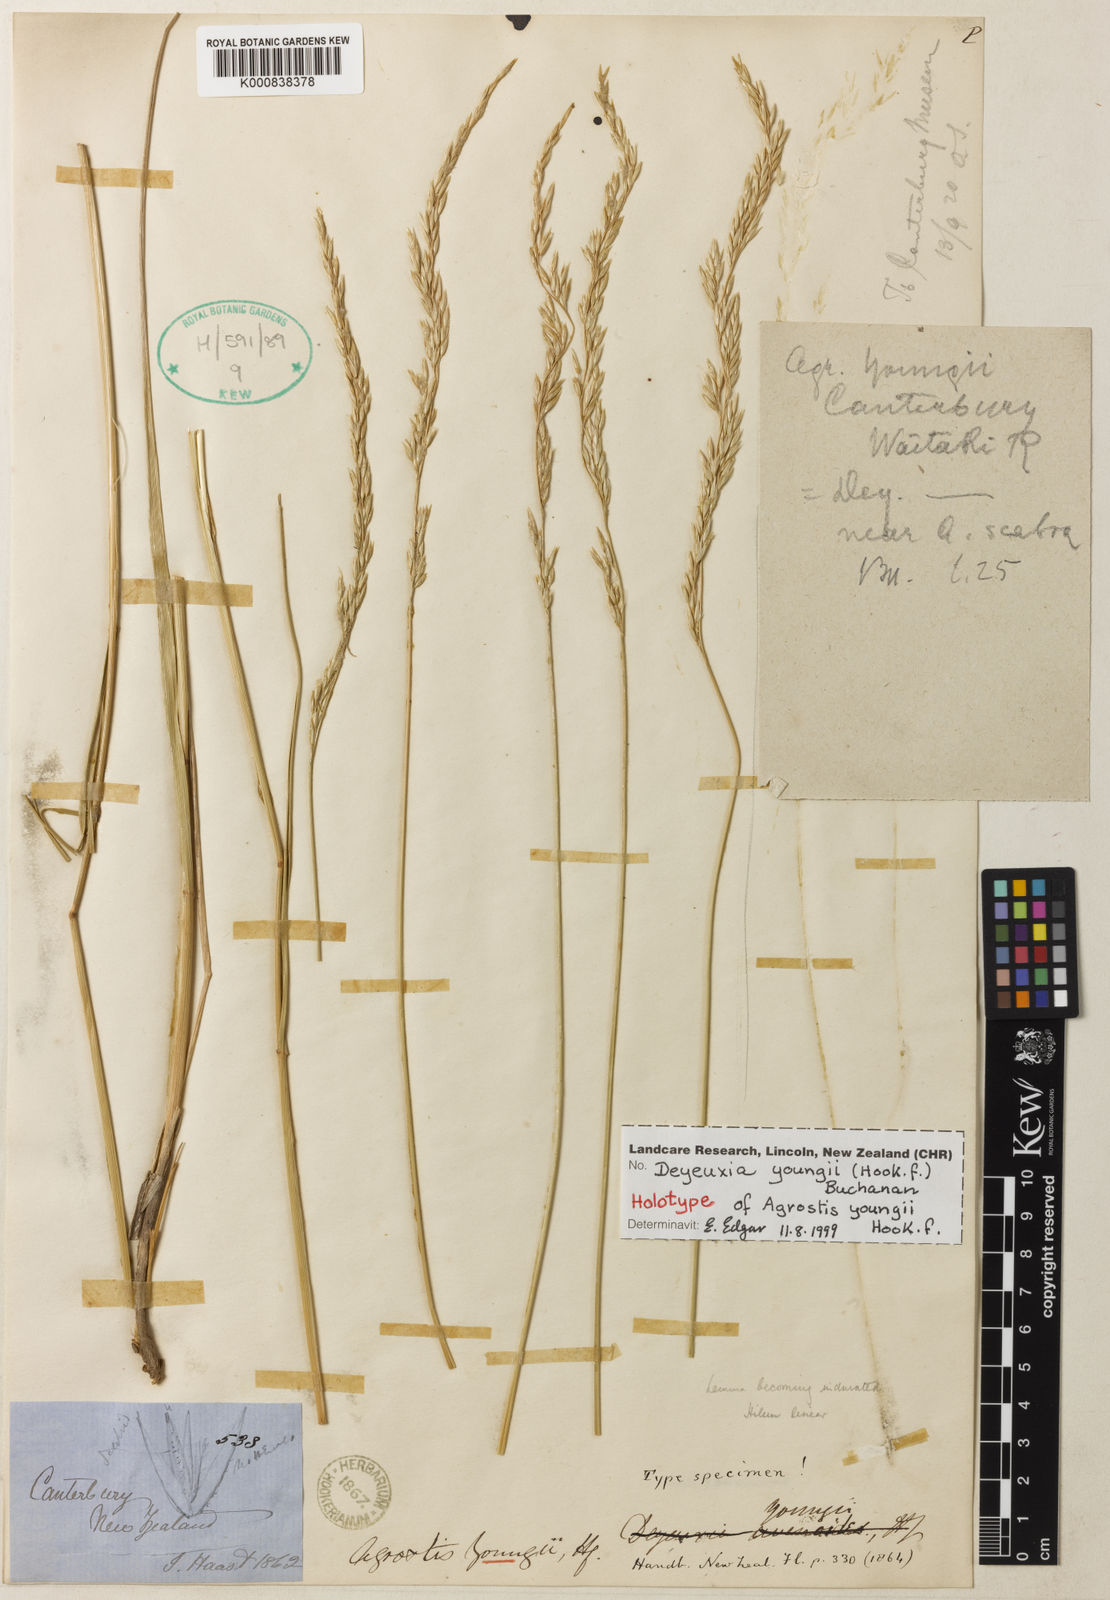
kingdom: Plantae
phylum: Tracheophyta
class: Liliopsida
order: Poales
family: Poaceae
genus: Calamagrostis
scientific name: Calamagrostis
